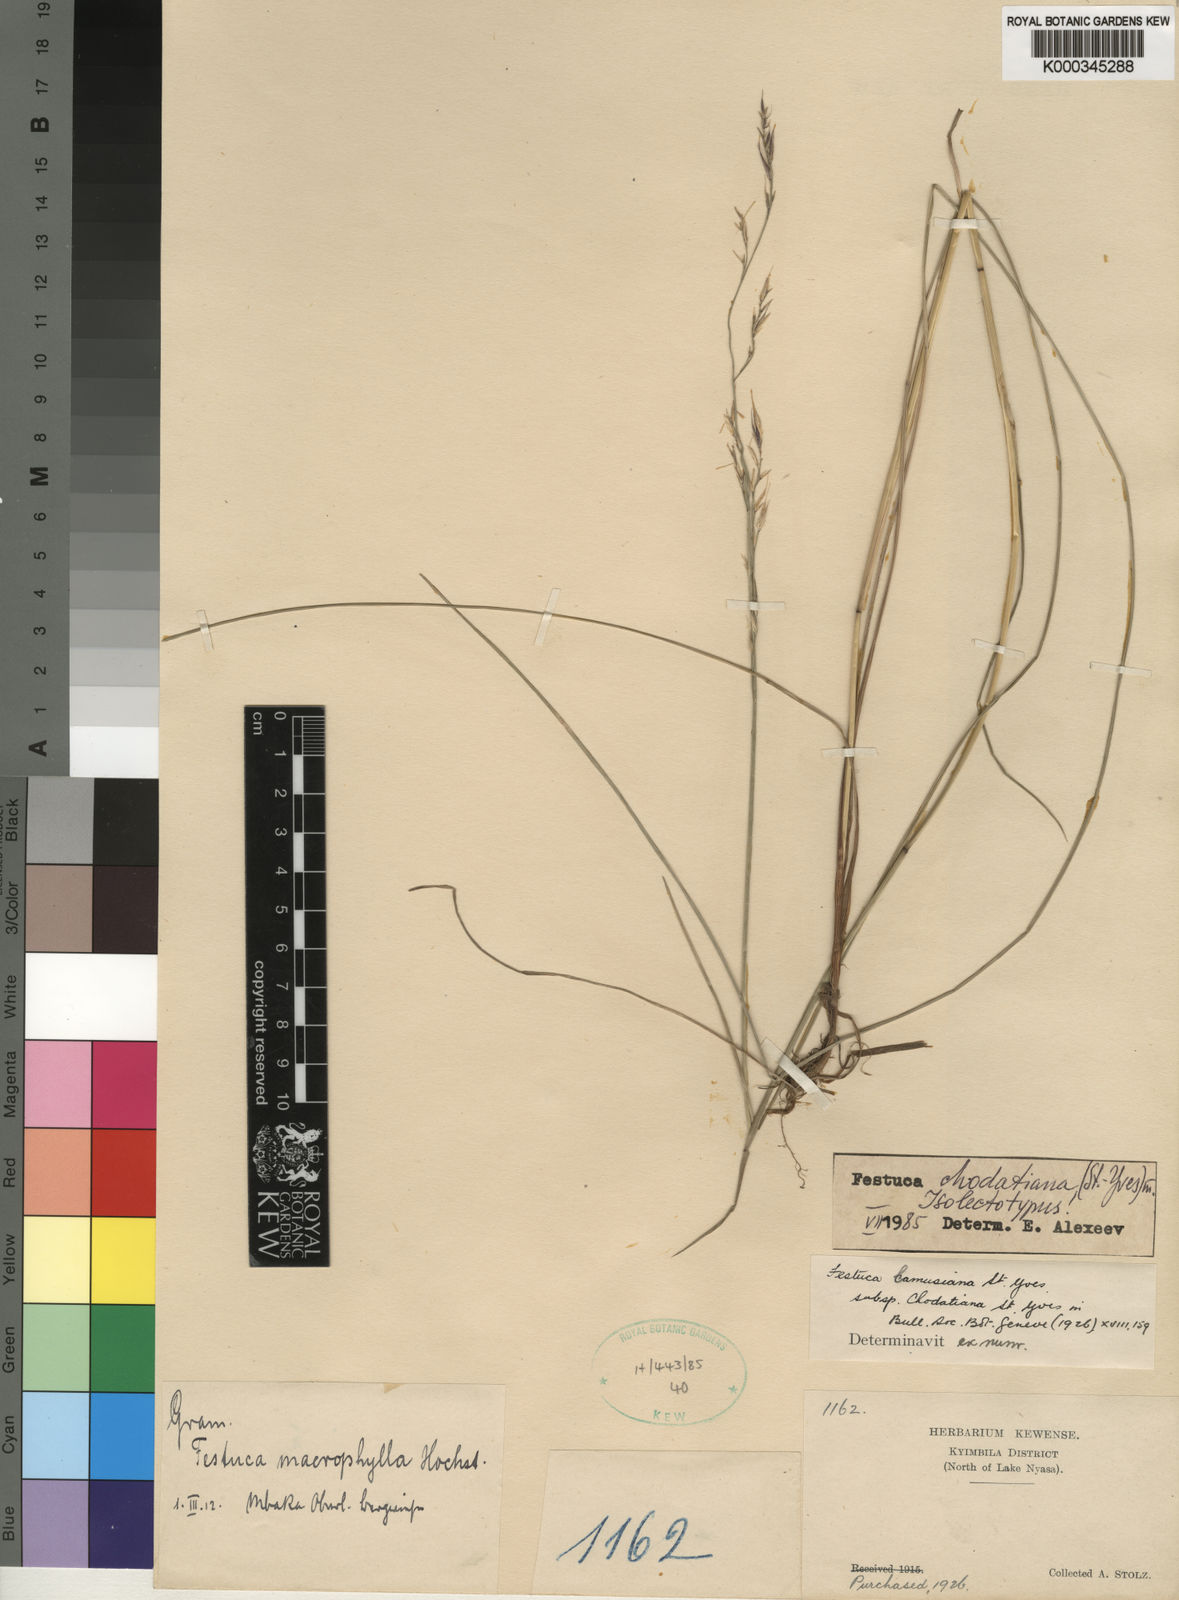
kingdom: Plantae
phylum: Tracheophyta
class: Liliopsida
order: Poales
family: Poaceae
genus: Festuca
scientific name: Festuca chodatiana
